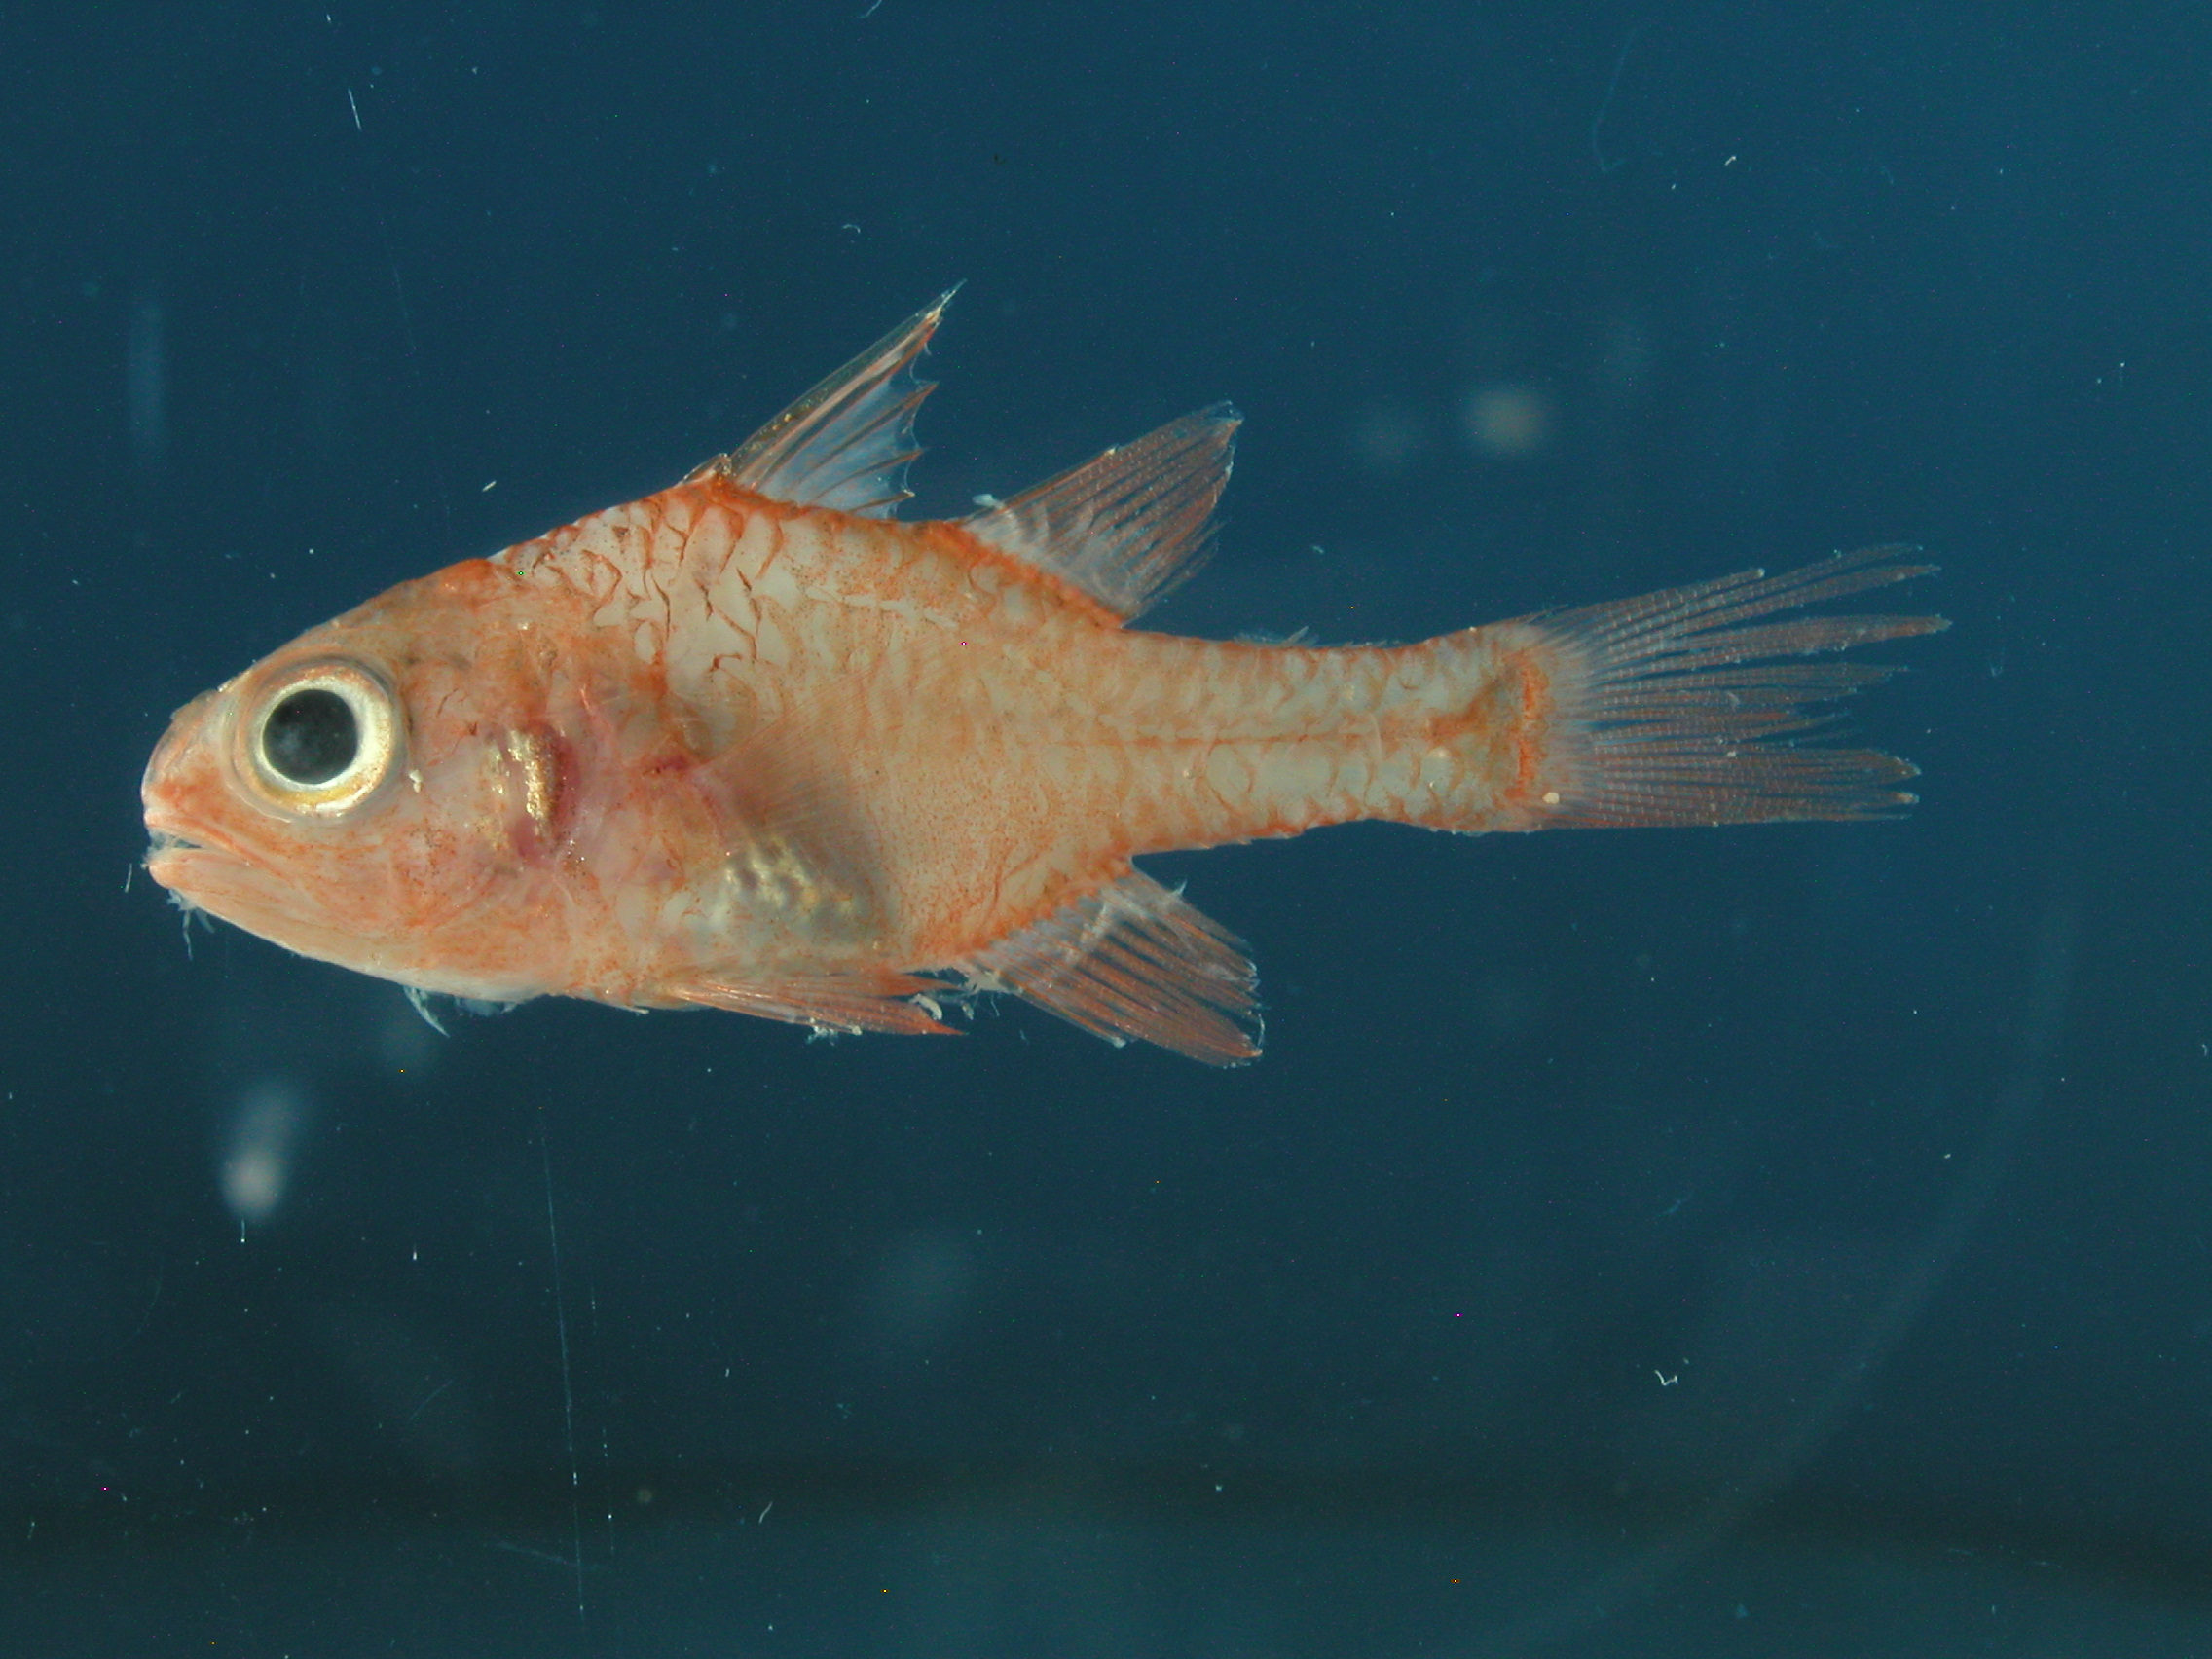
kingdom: Animalia
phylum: Chordata
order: Perciformes
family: Apogonidae
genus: Apogon
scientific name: Apogon campbelli
